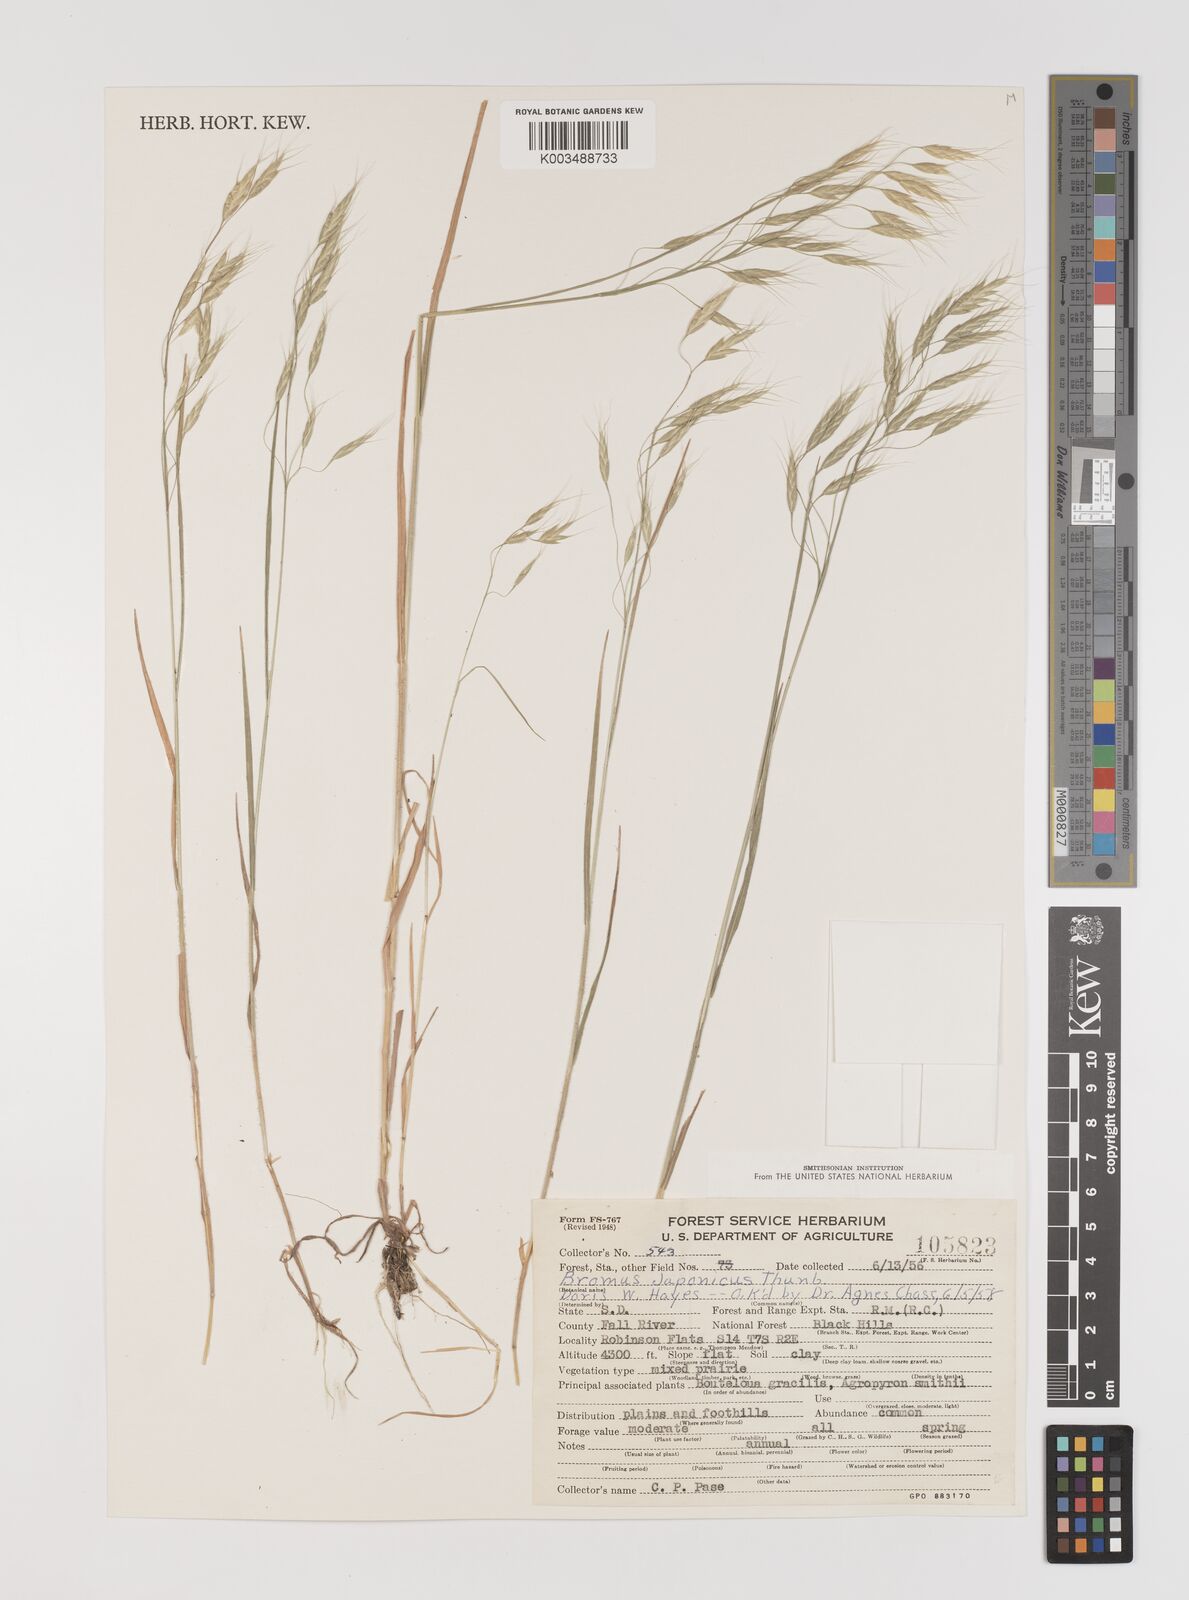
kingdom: Plantae
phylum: Tracheophyta
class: Liliopsida
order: Poales
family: Poaceae
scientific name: Poaceae
